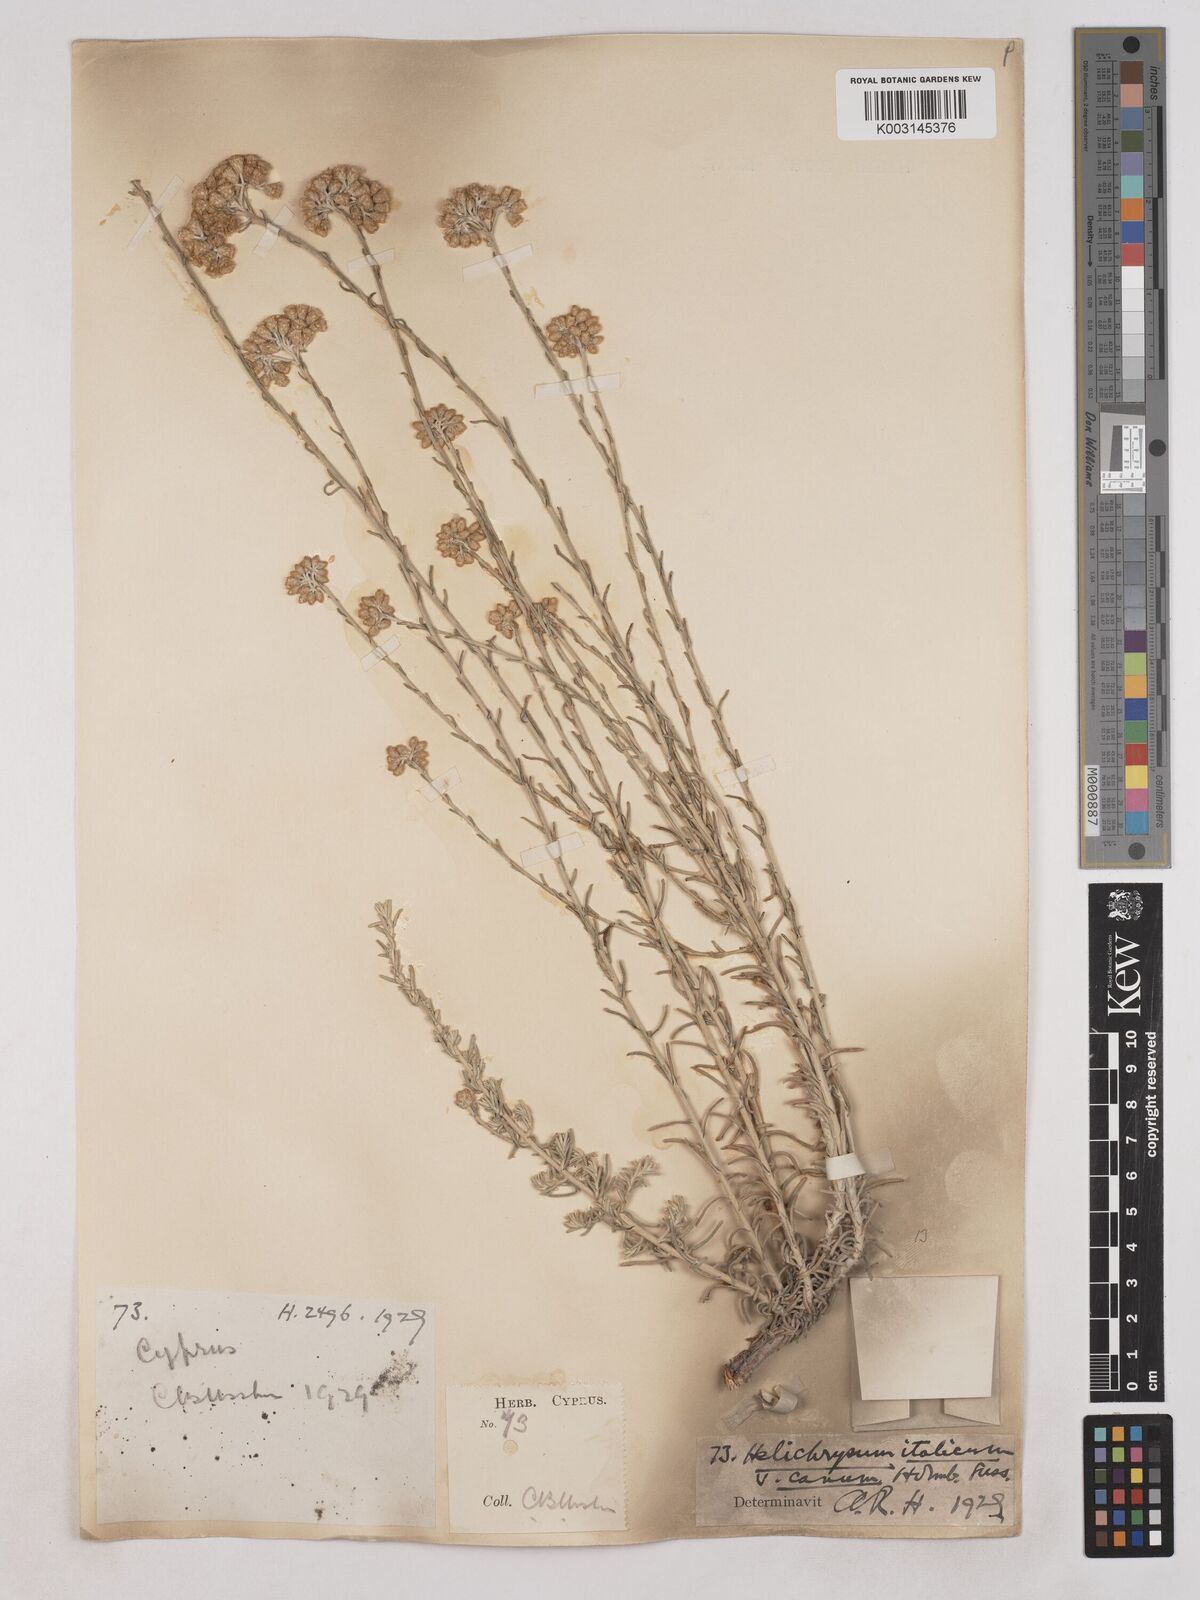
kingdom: Plantae
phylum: Tracheophyta
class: Magnoliopsida
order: Asterales
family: Asteraceae
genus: Helichrysum
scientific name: Helichrysum italicum
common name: Curryplant
